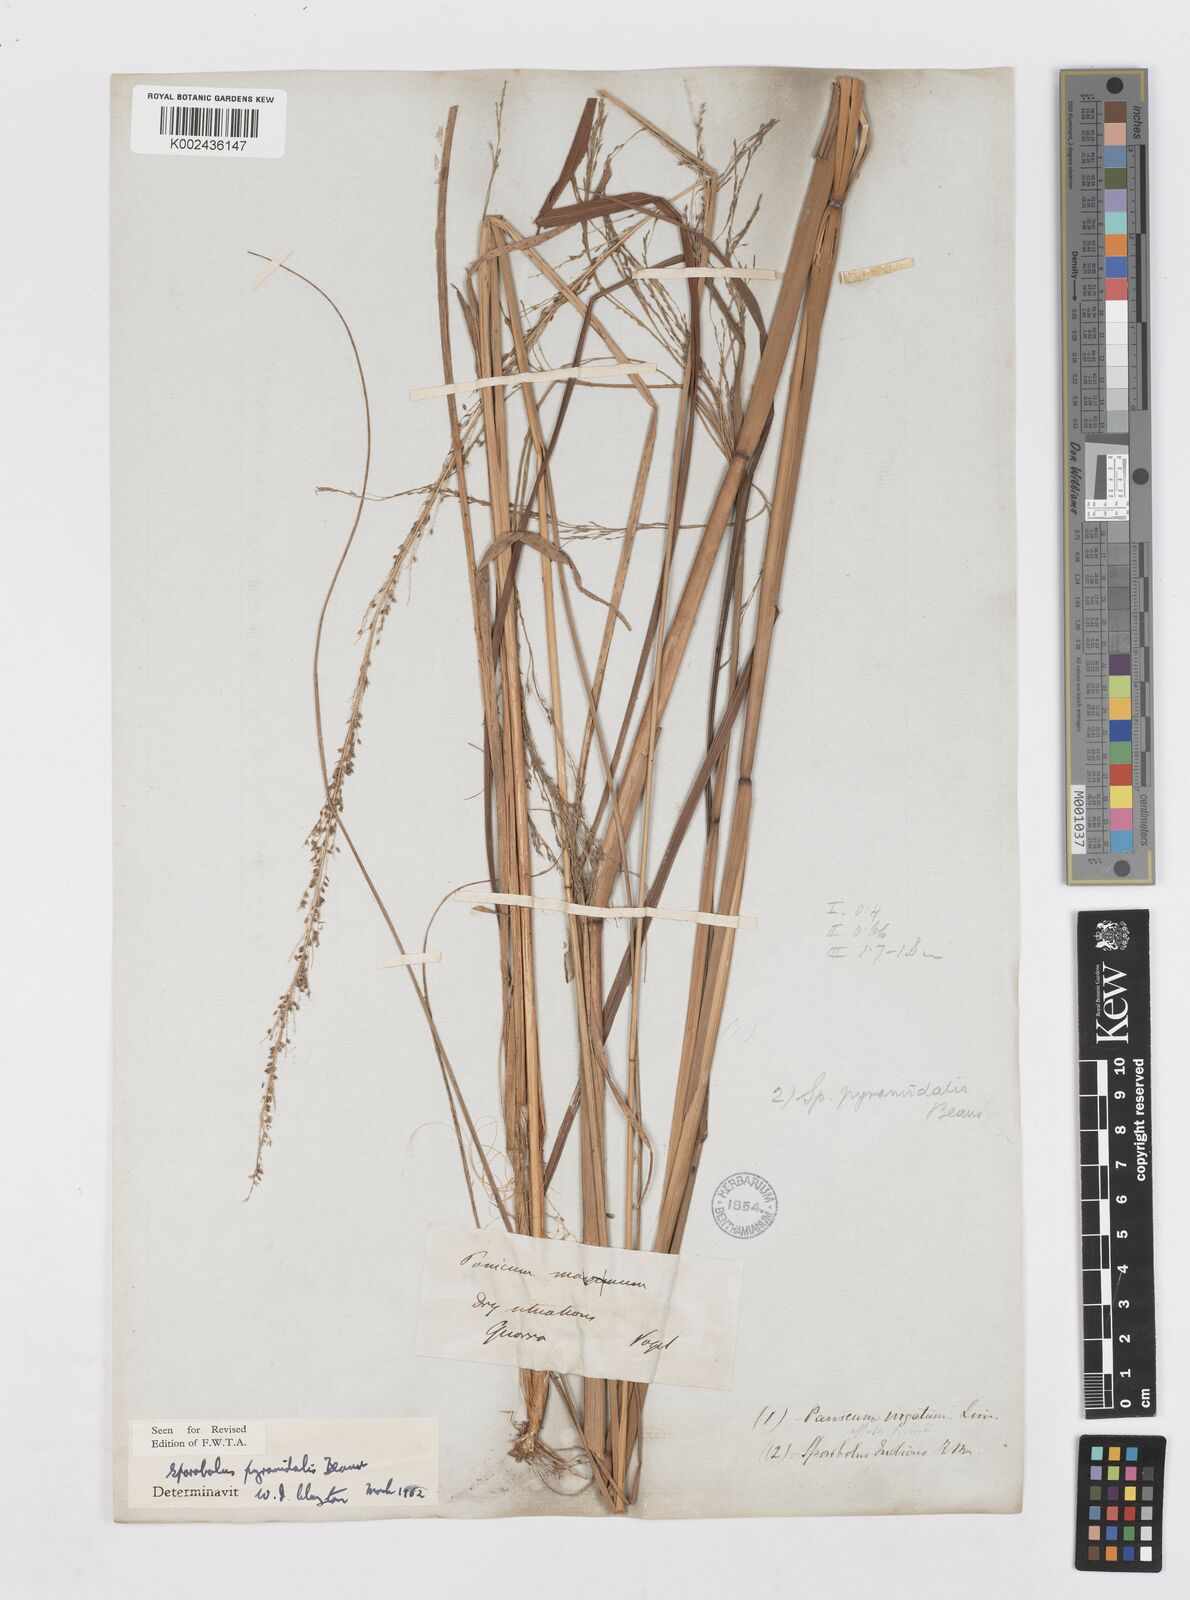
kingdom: Plantae
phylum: Tracheophyta
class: Liliopsida
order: Poales
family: Poaceae
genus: Sporobolus
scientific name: Sporobolus pyramidalis
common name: West indian dropseed
